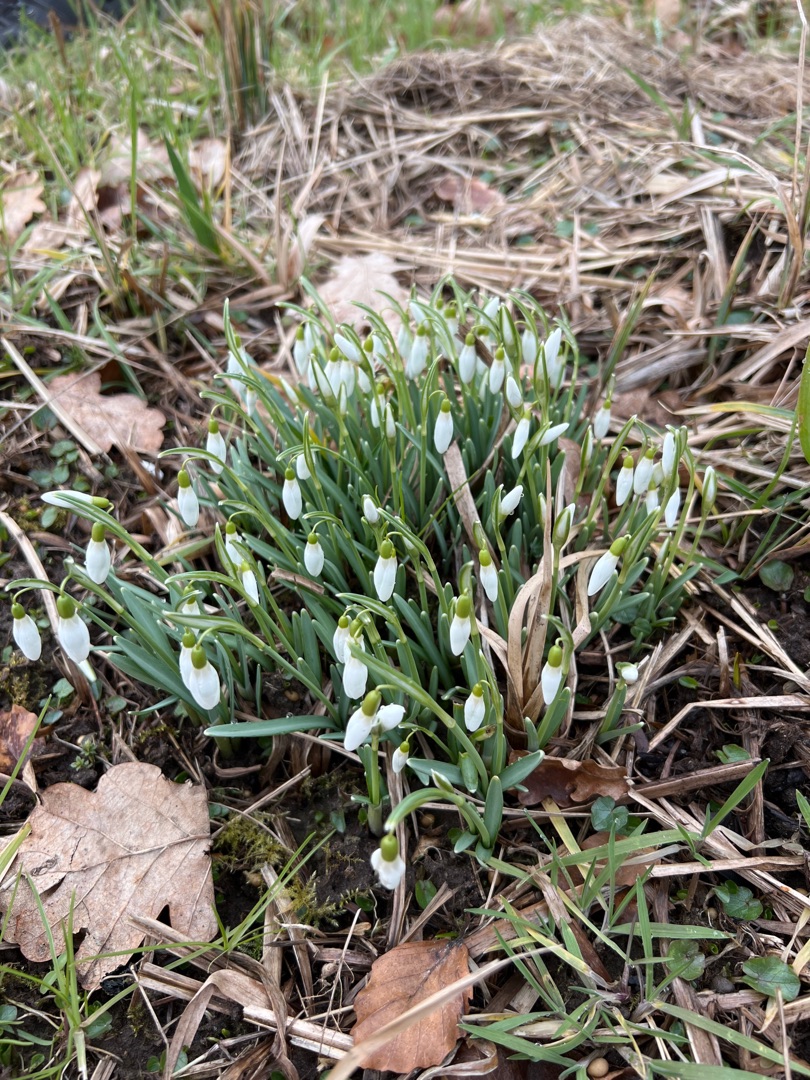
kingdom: Plantae
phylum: Tracheophyta
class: Liliopsida
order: Asparagales
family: Amaryllidaceae
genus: Galanthus
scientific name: Galanthus nivalis
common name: Vintergæk
